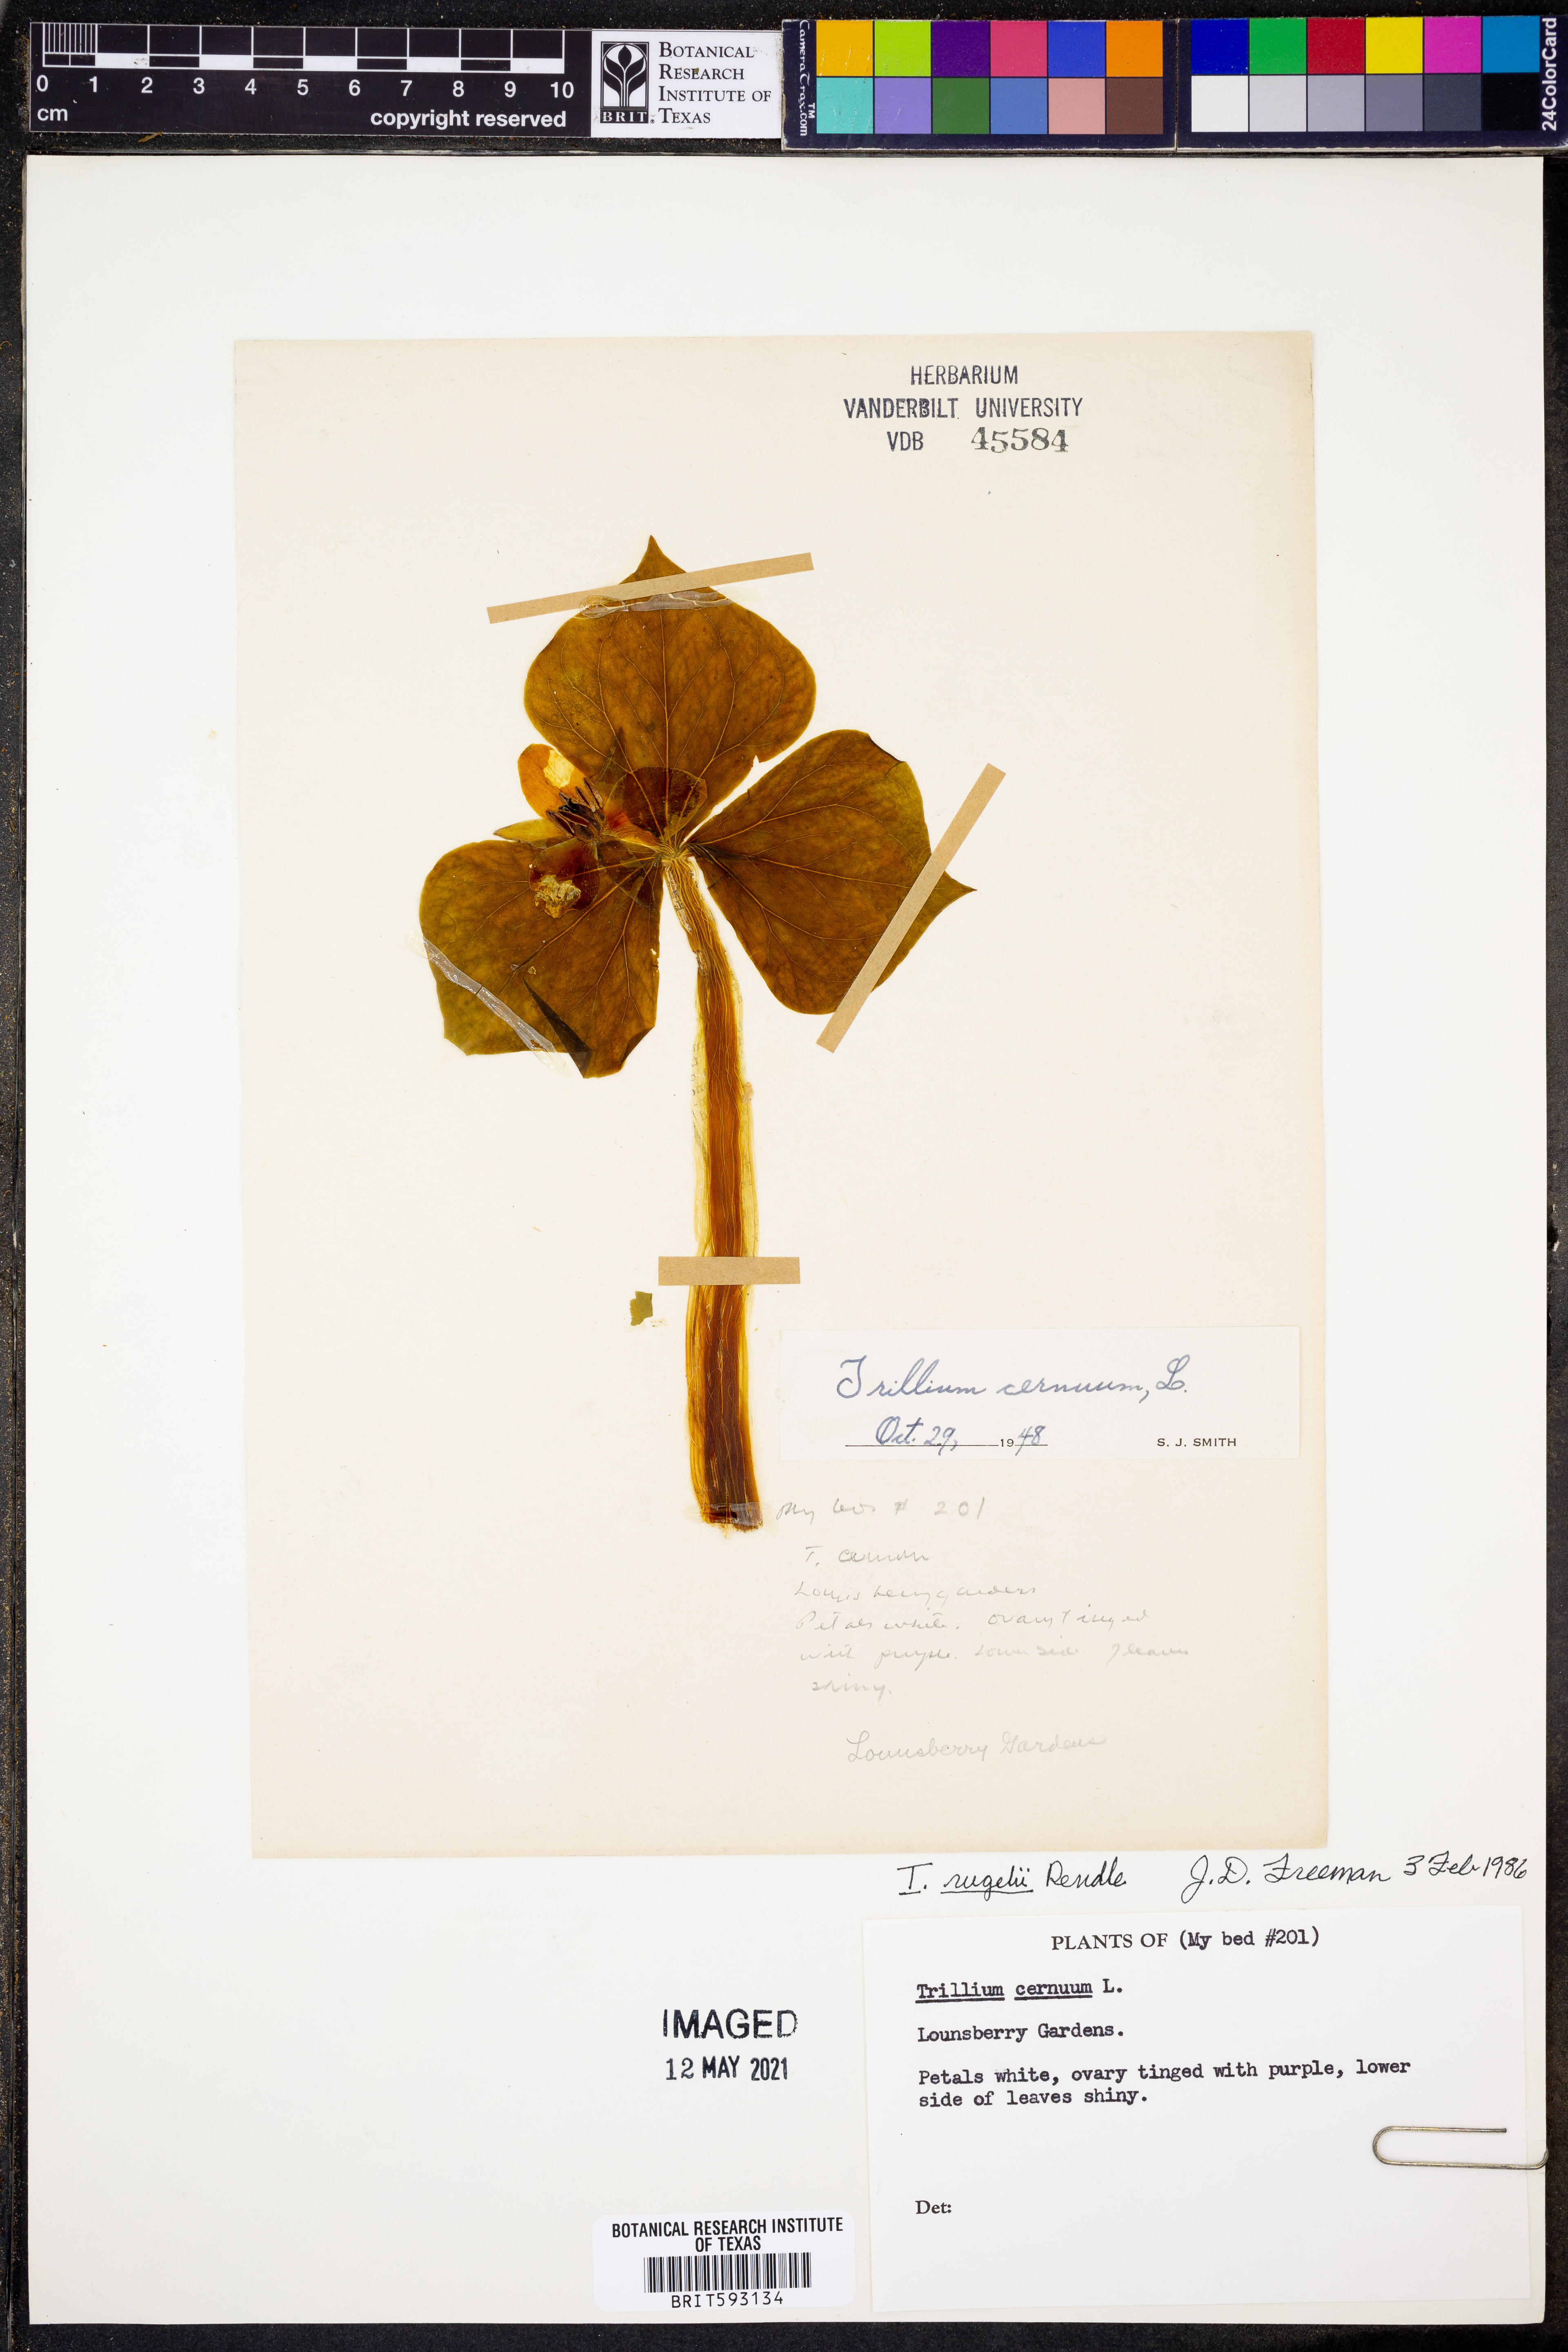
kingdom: Plantae
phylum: Tracheophyta
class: Liliopsida
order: Liliales
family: Melanthiaceae
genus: Trillium
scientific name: Trillium rugelii
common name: Ill-scented trillium
